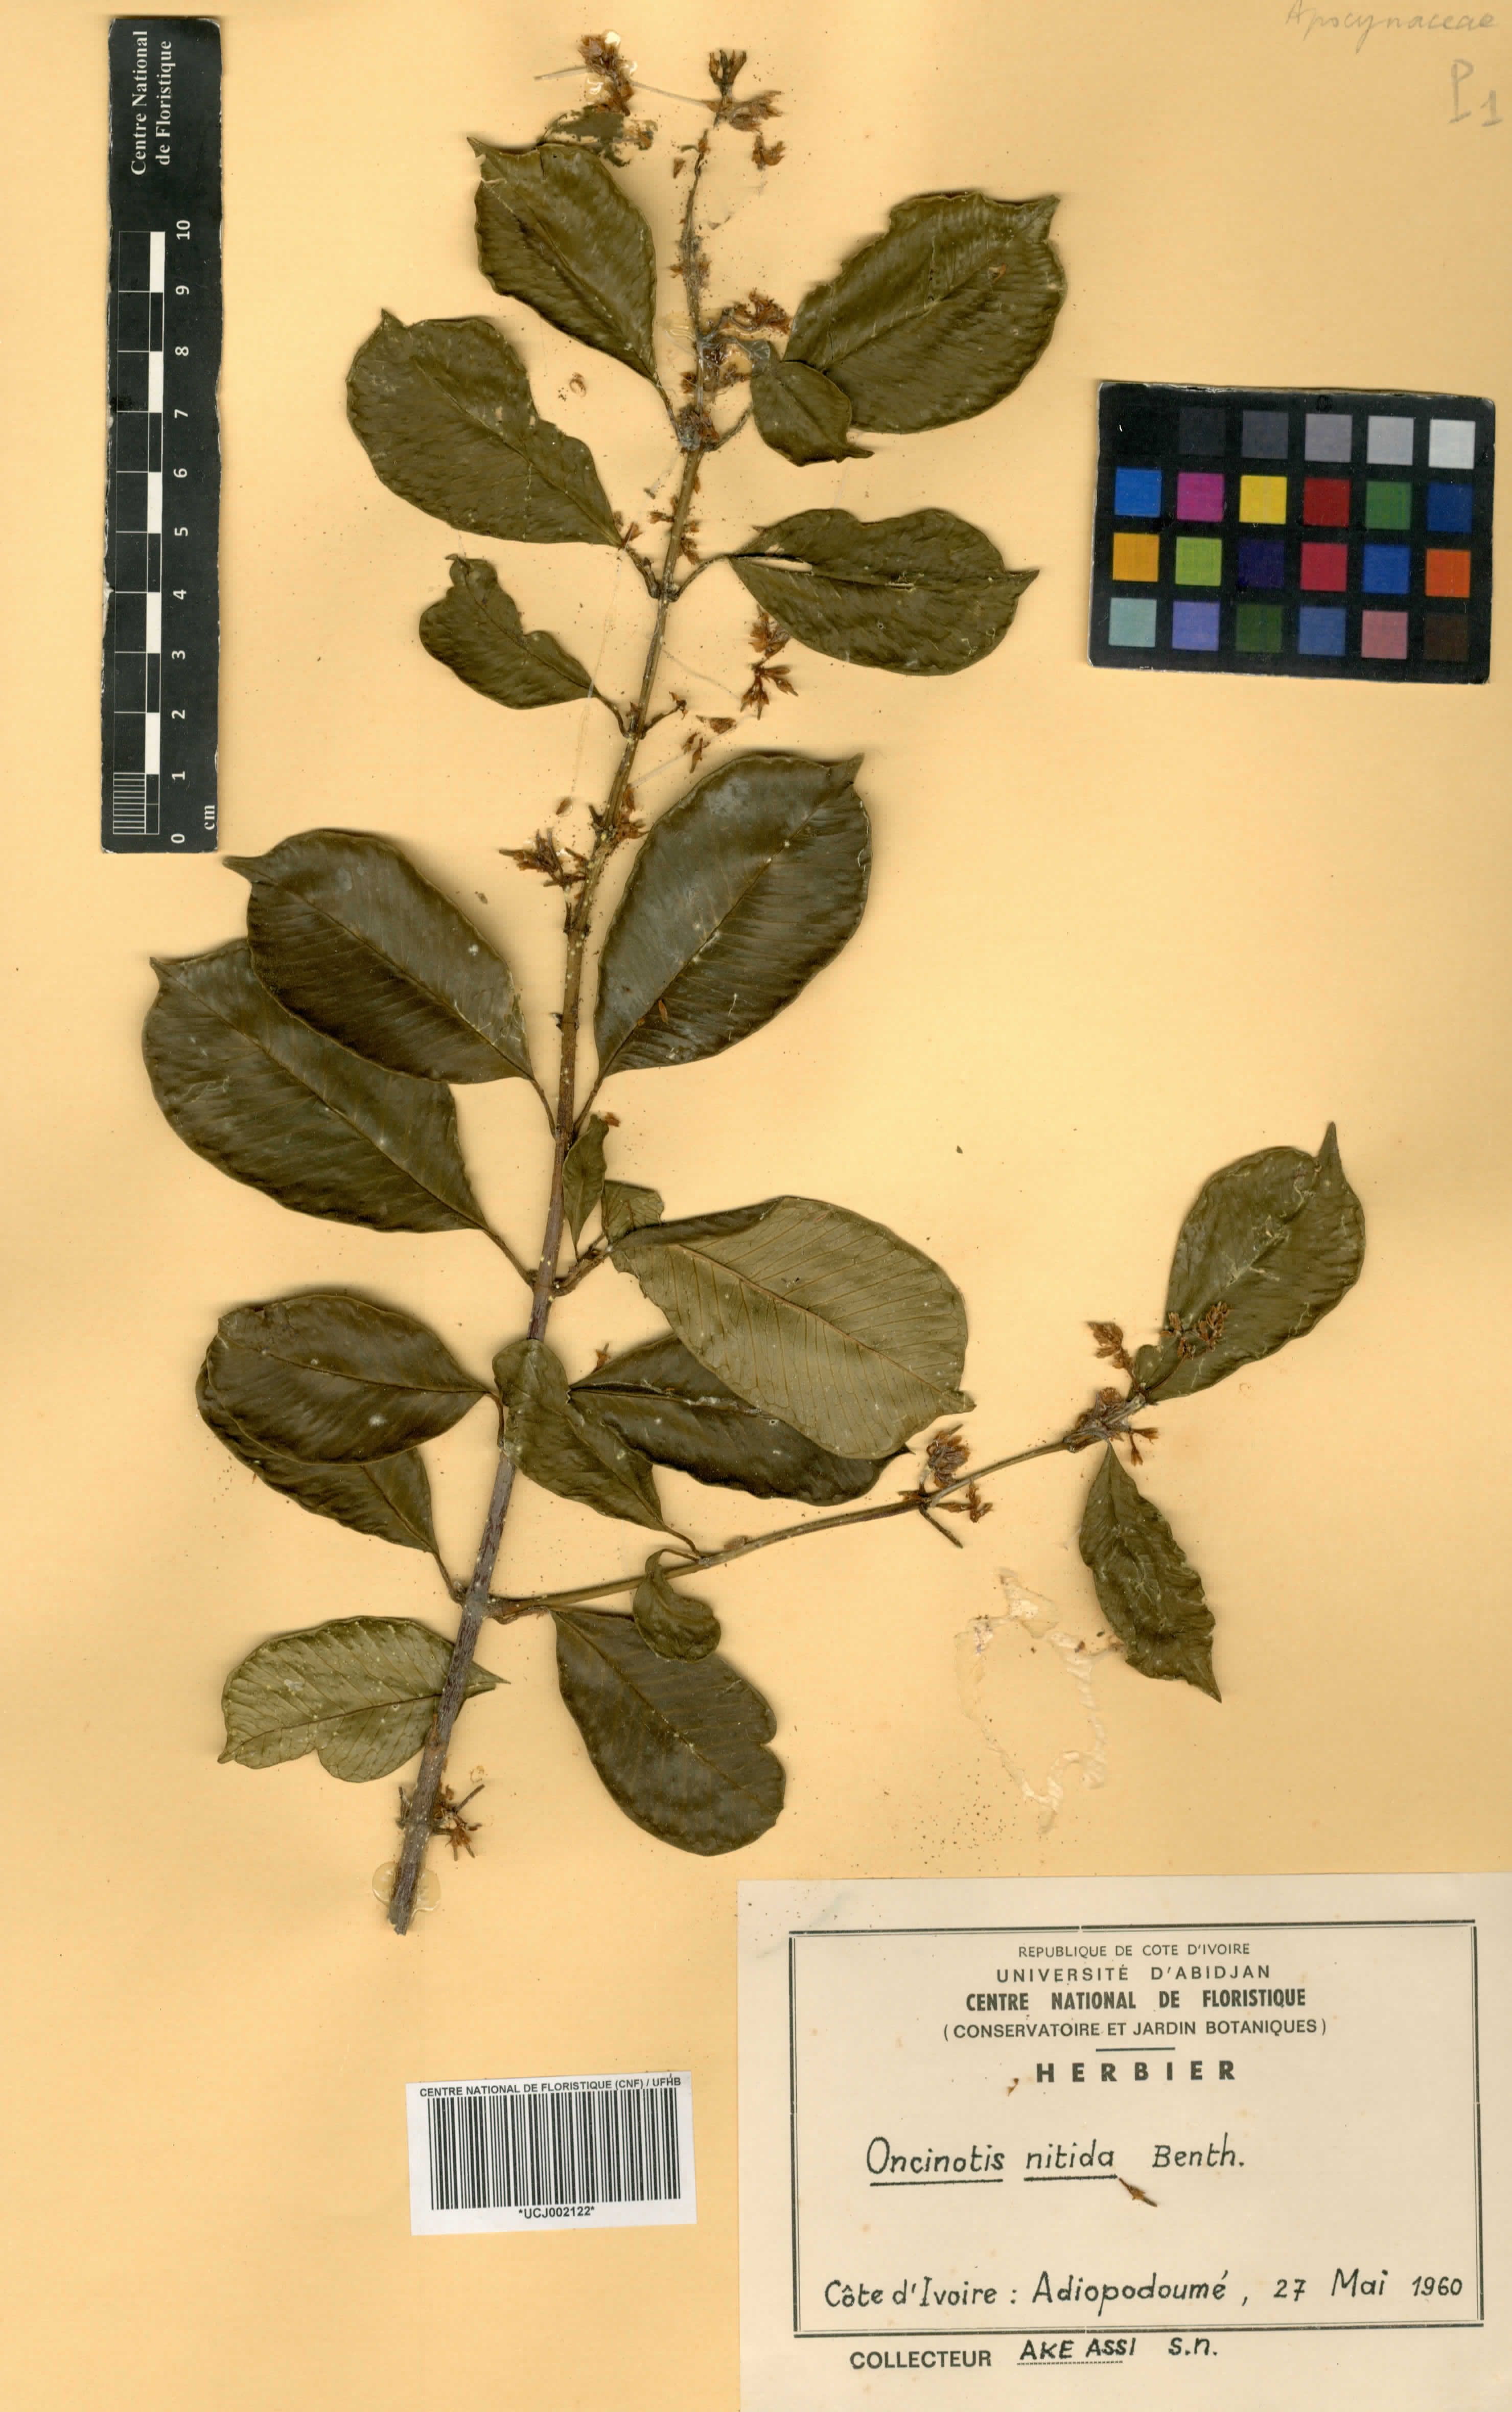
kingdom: Plantae
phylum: Tracheophyta
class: Magnoliopsida
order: Gentianales
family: Apocynaceae
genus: Oncinotis
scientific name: Oncinotis nitida
